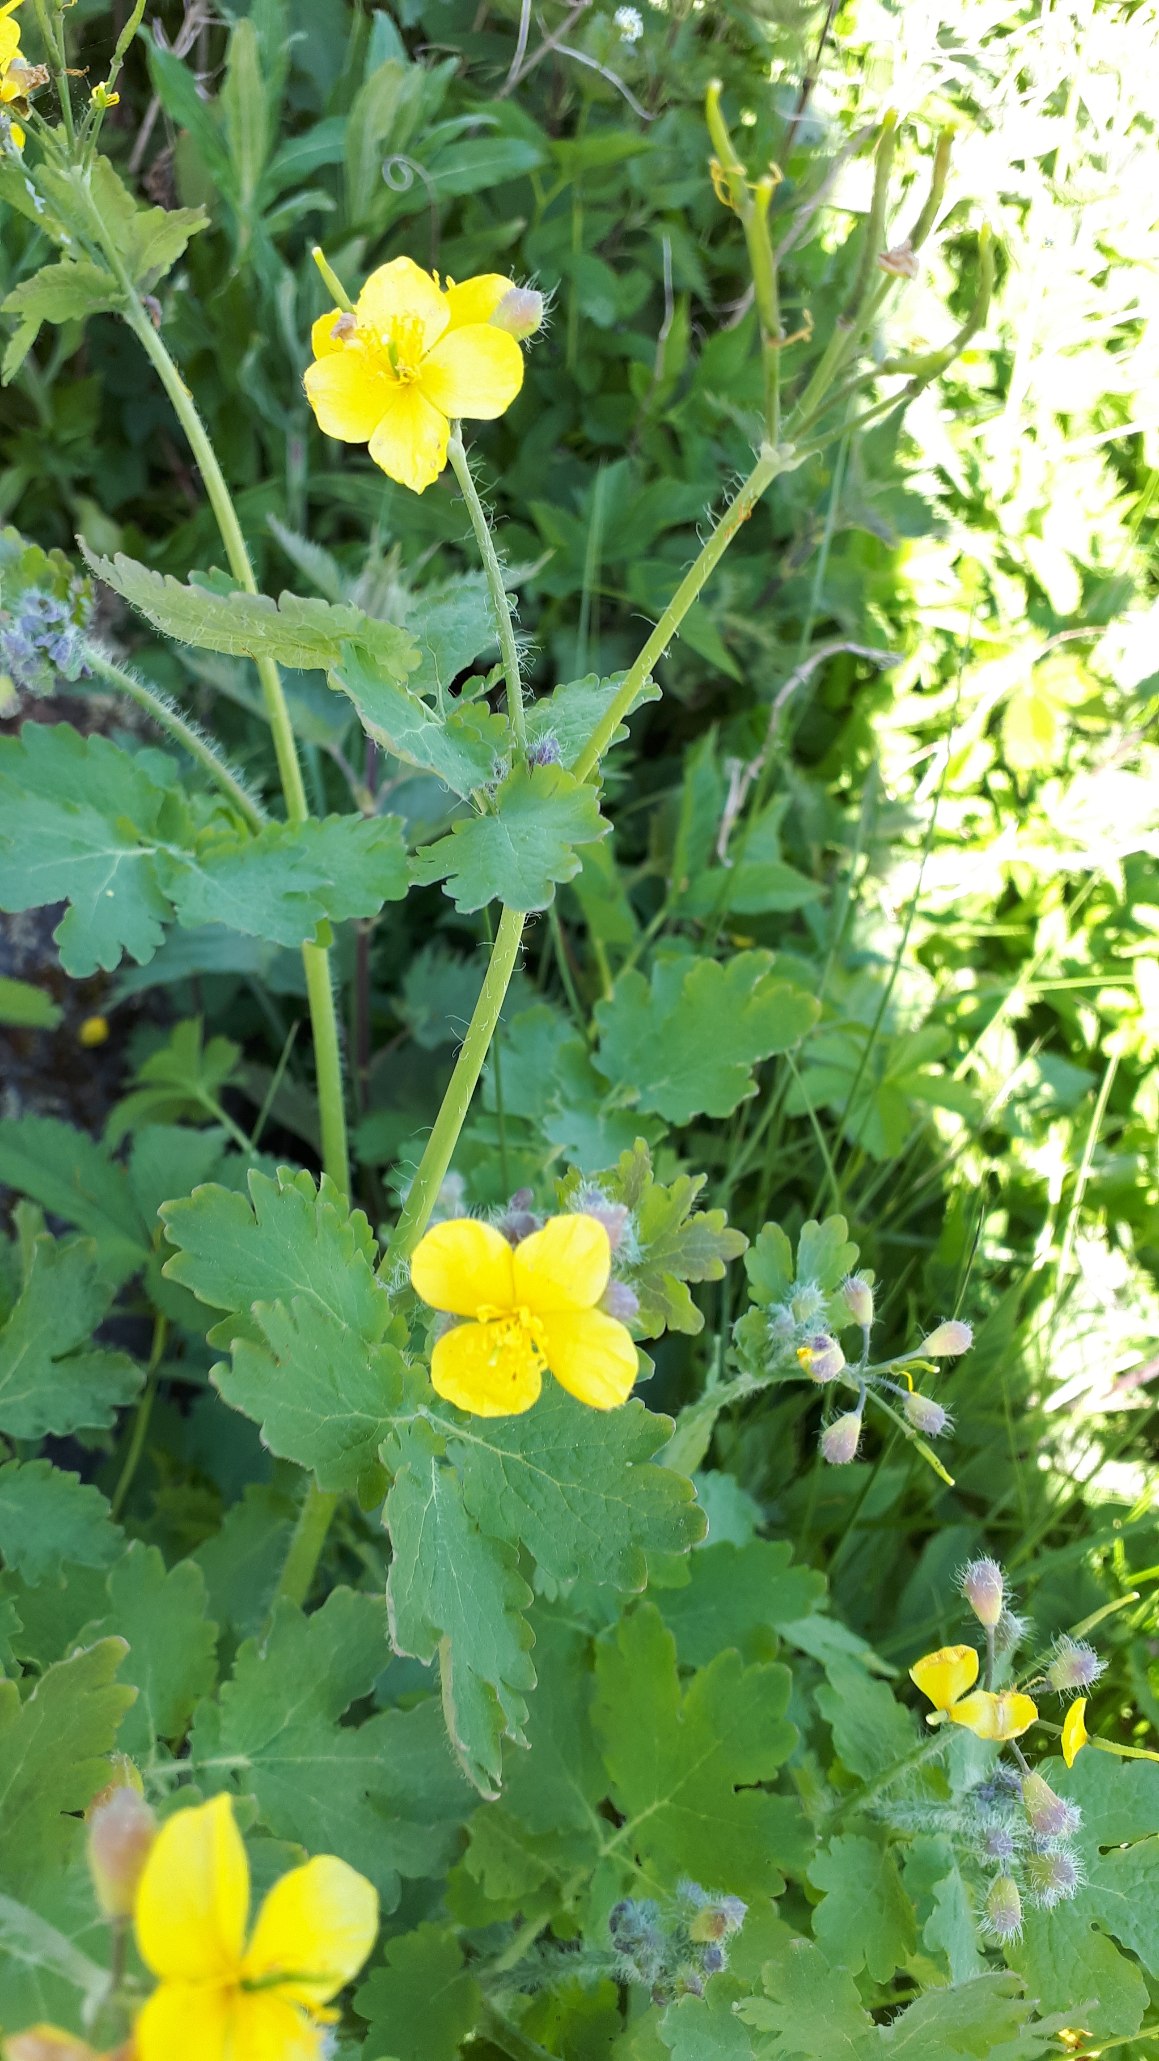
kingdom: Plantae
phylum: Tracheophyta
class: Magnoliopsida
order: Ranunculales
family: Papaveraceae
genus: Chelidonium
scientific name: Chelidonium majus
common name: Svaleurt
